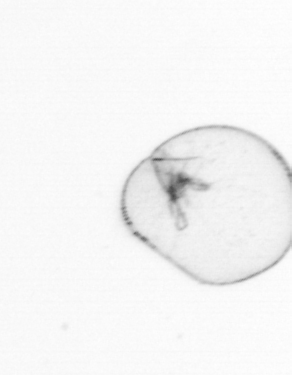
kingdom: Chromista
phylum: Myzozoa
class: Dinophyceae
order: Noctilucales
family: Noctilucaceae
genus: Noctiluca
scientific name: Noctiluca scintillans
